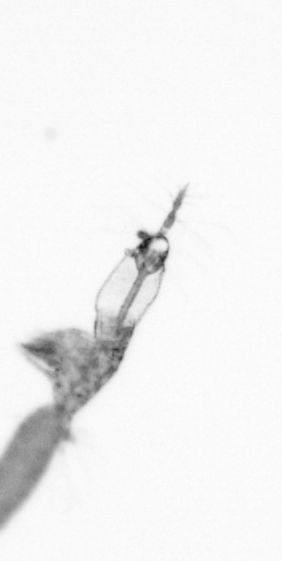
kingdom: Animalia
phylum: Arthropoda
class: Copepoda
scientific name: Copepoda
